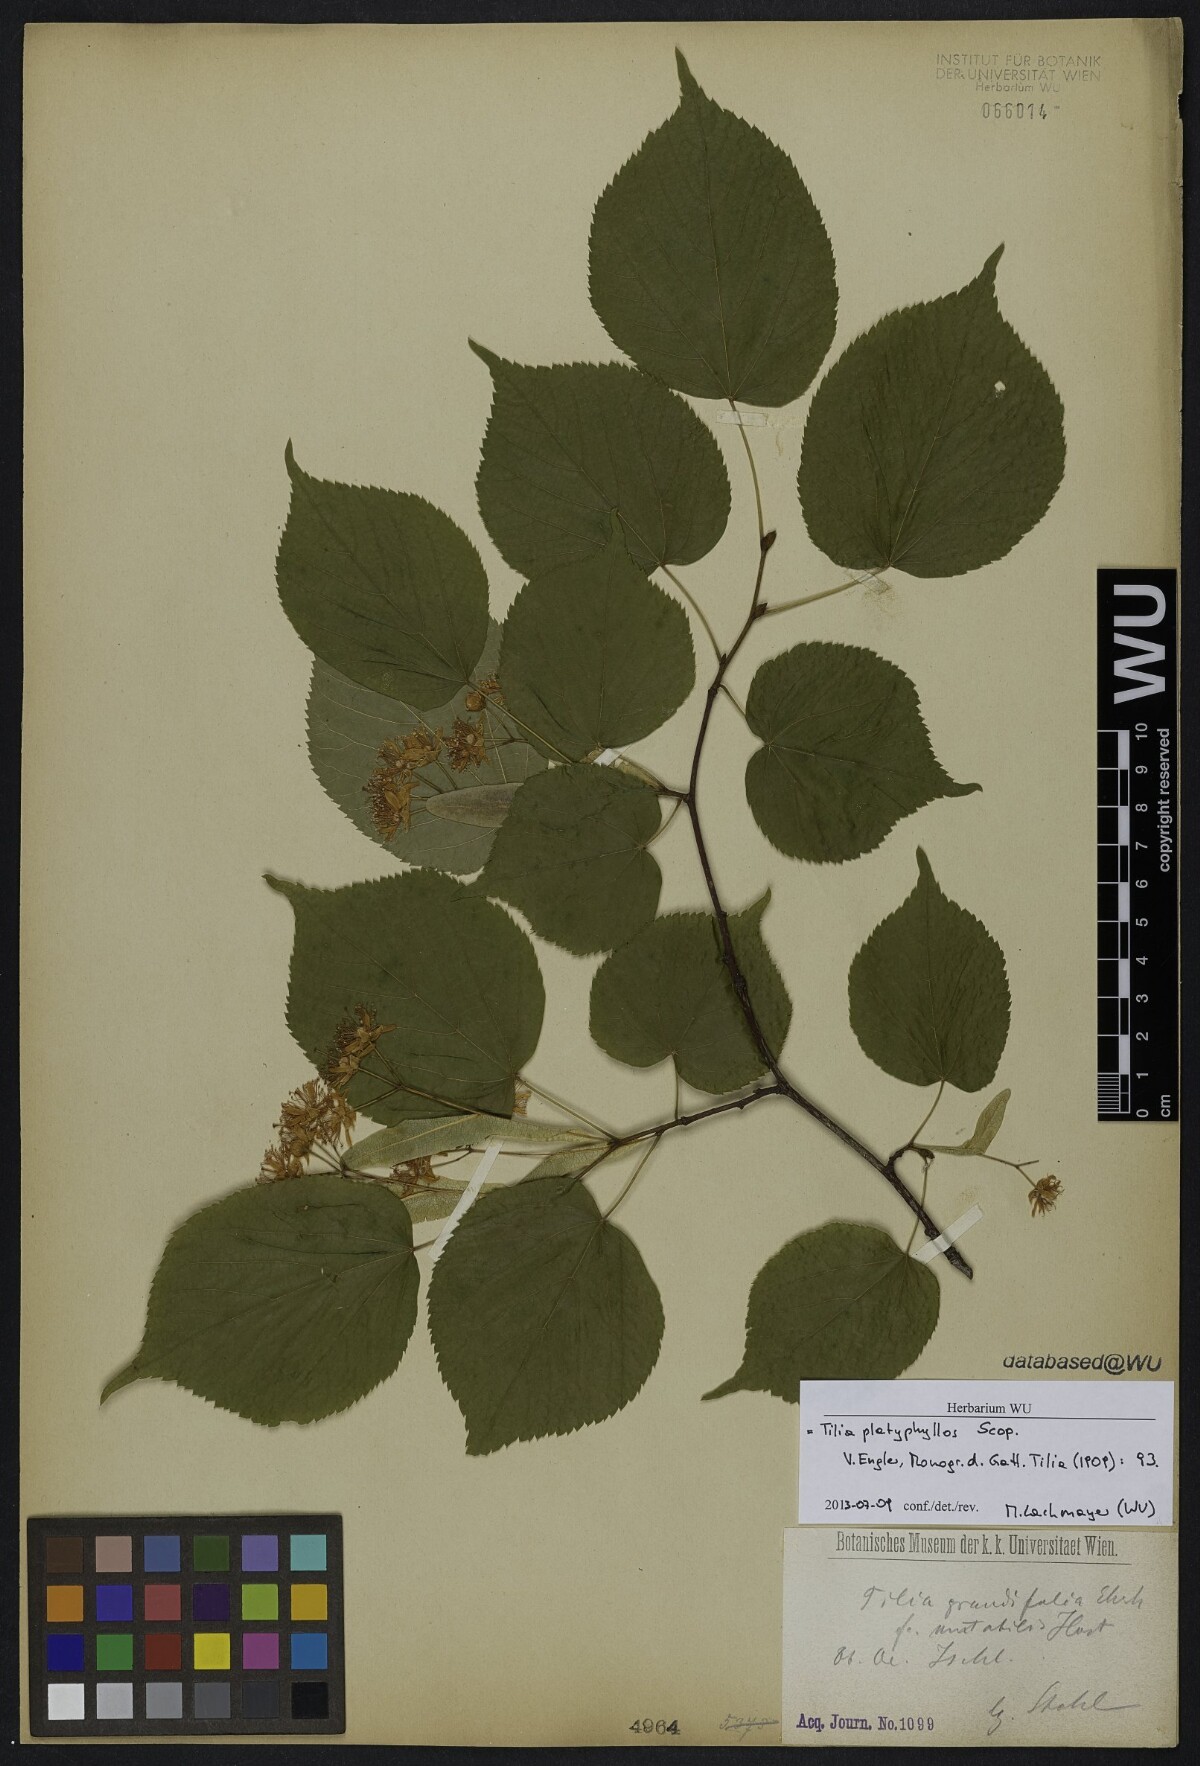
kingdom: Plantae
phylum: Tracheophyta
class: Magnoliopsida
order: Malvales
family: Malvaceae
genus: Tilia
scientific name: Tilia platyphyllos
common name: Large-leaved lime
